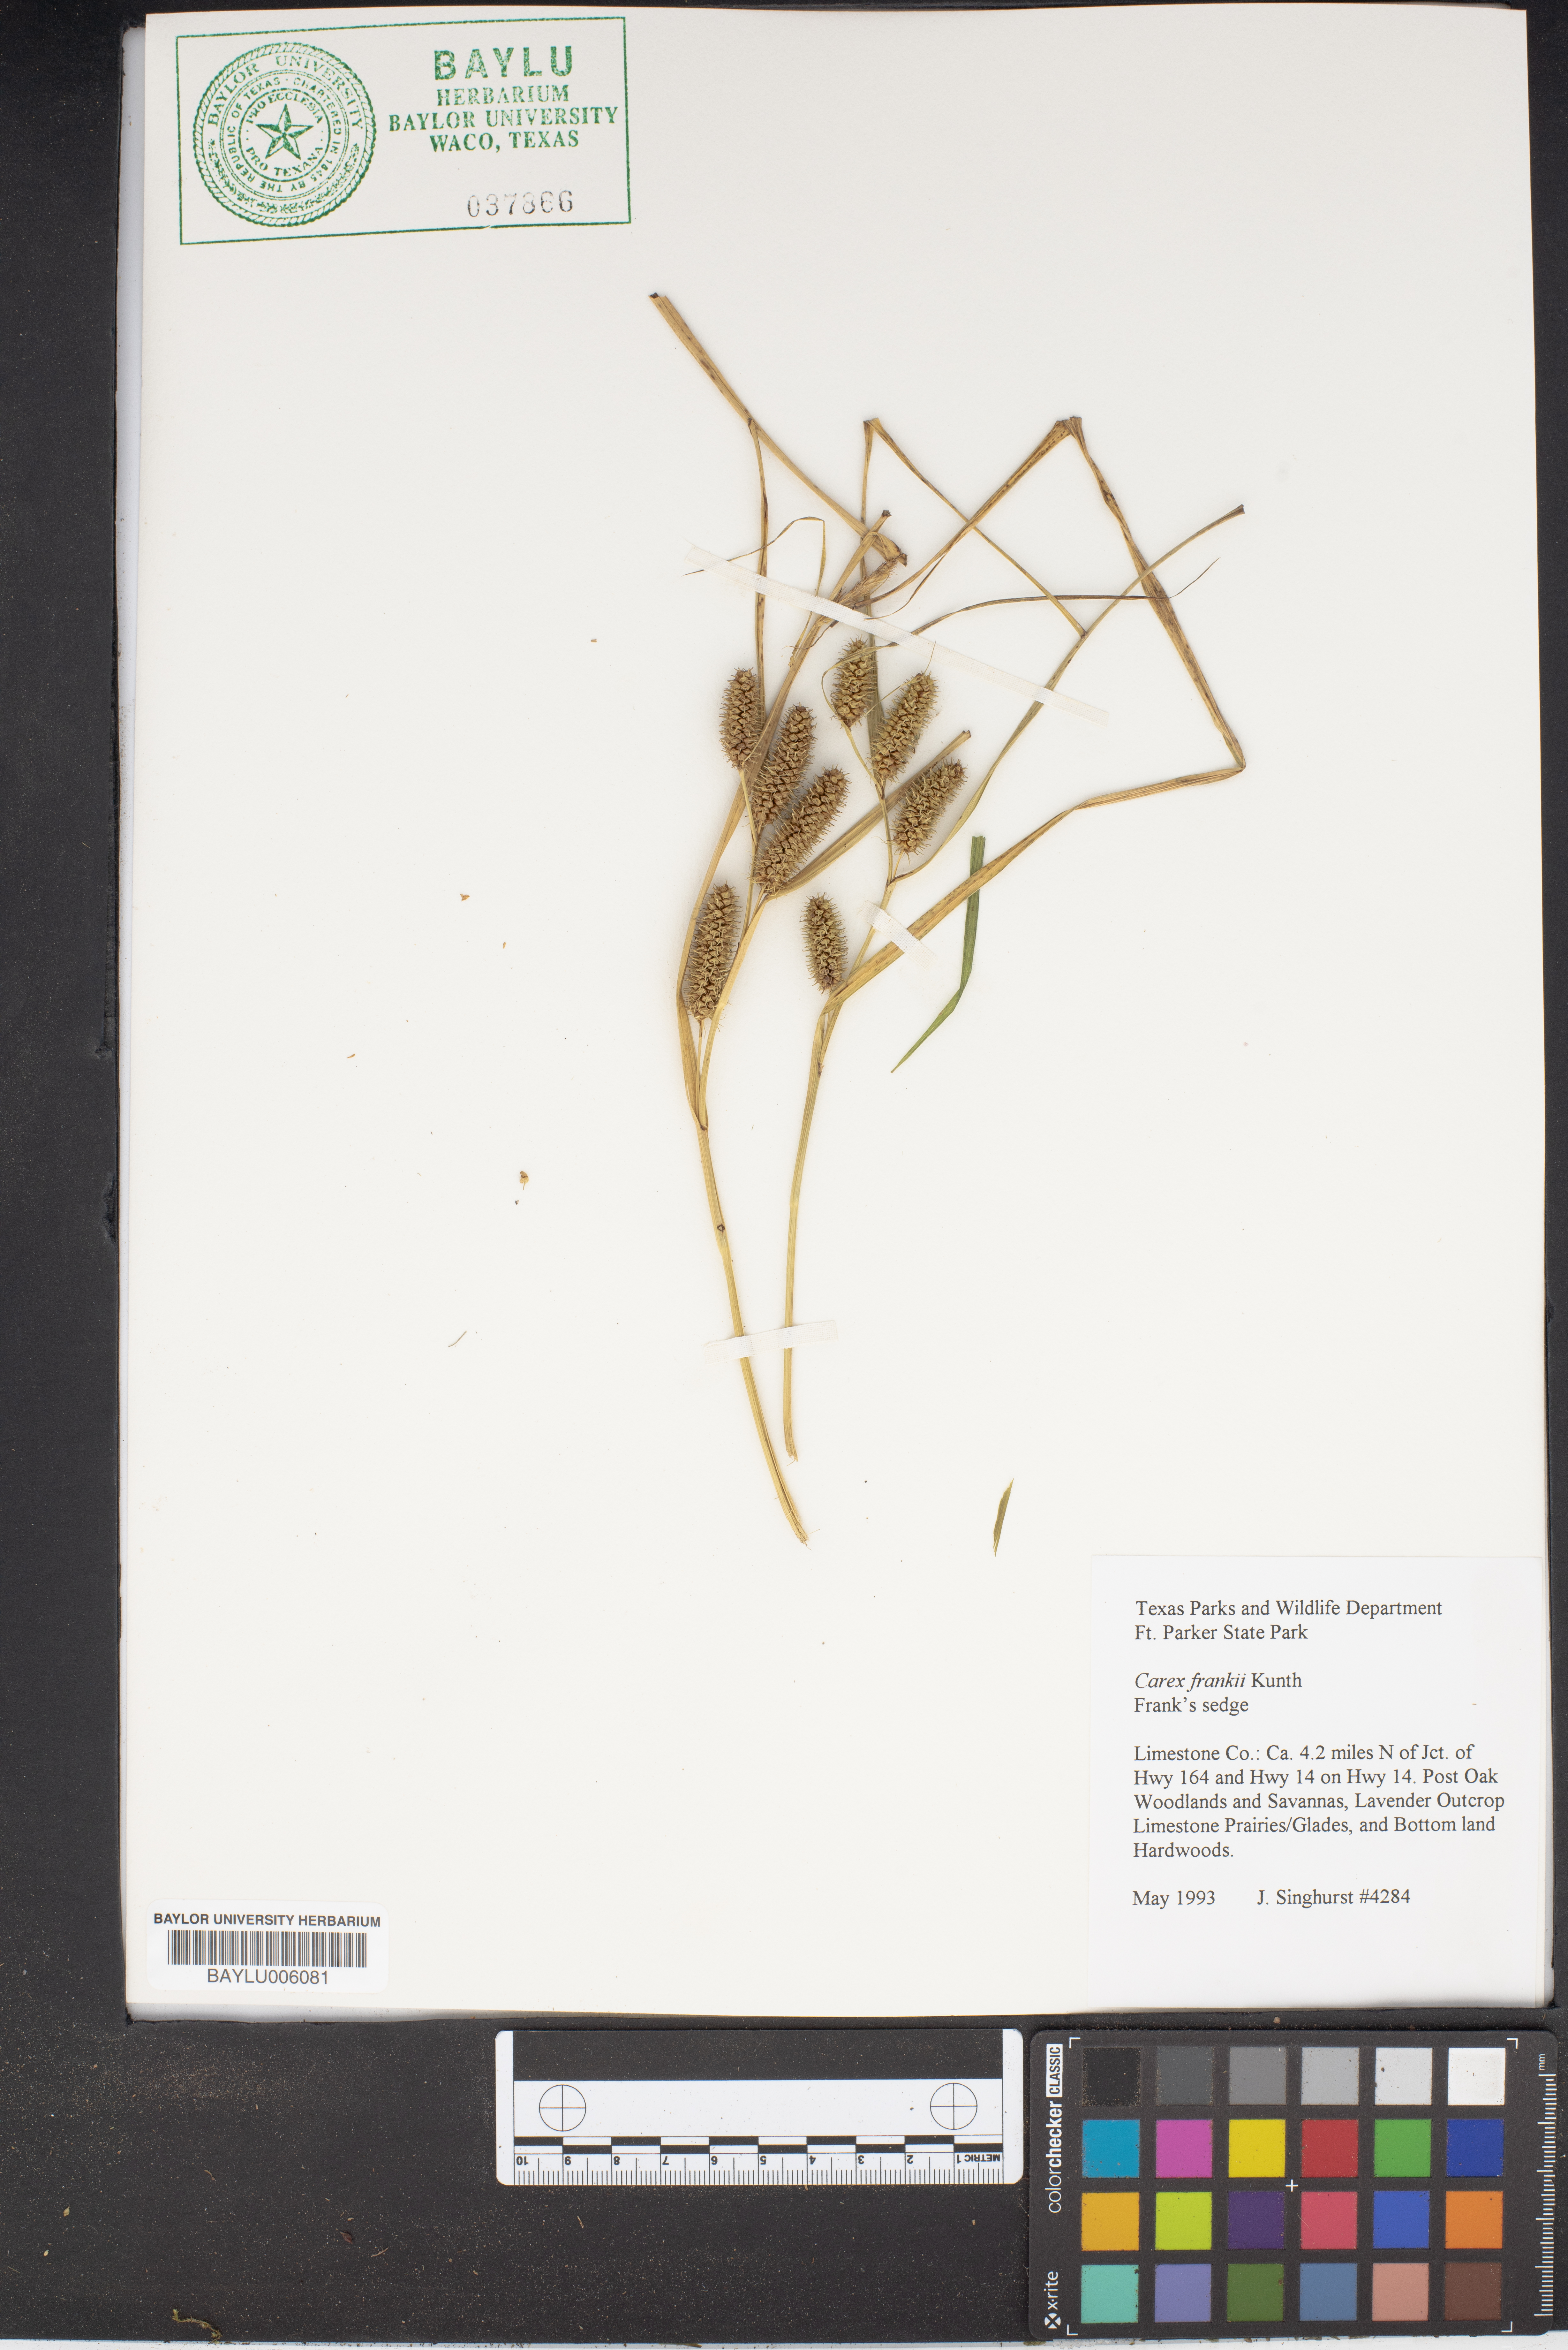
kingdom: Plantae
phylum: Tracheophyta
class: Liliopsida
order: Poales
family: Cyperaceae
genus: Carex
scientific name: Carex frankii
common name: Frank's sedge
